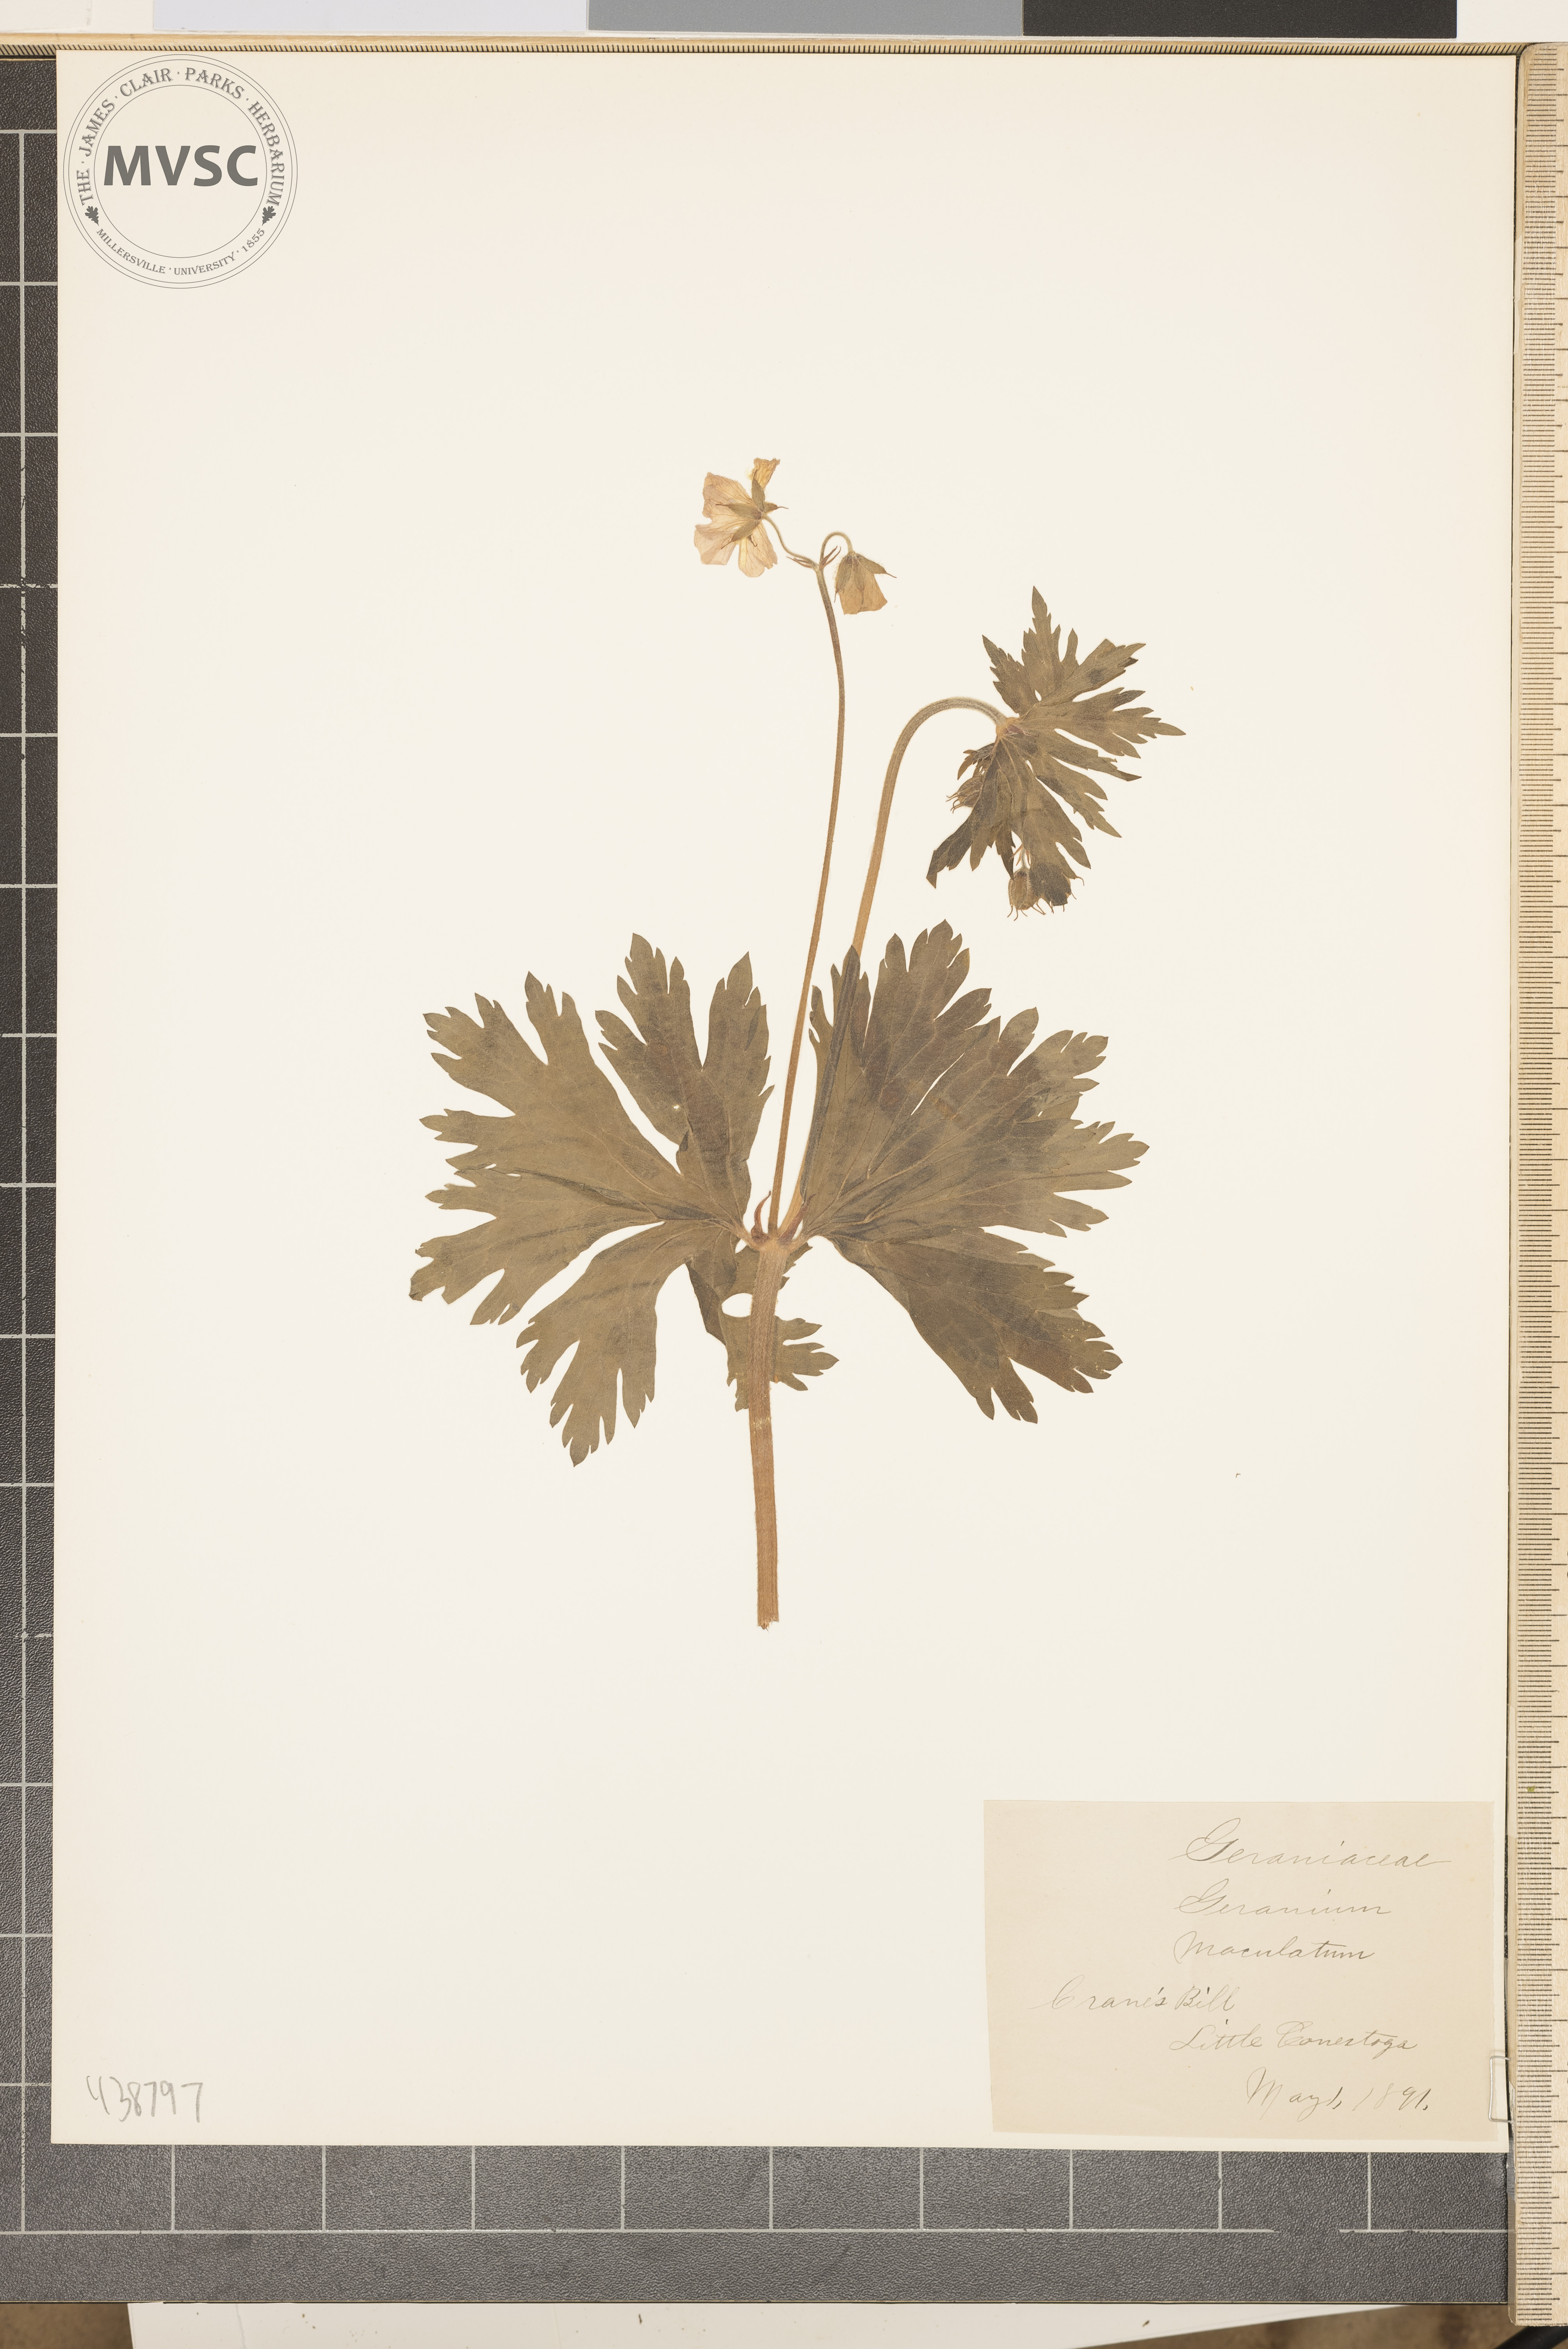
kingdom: Plantae
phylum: Tracheophyta
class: Magnoliopsida
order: Geraniales
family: Geraniaceae
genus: Geranium
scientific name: Geranium maculatum
